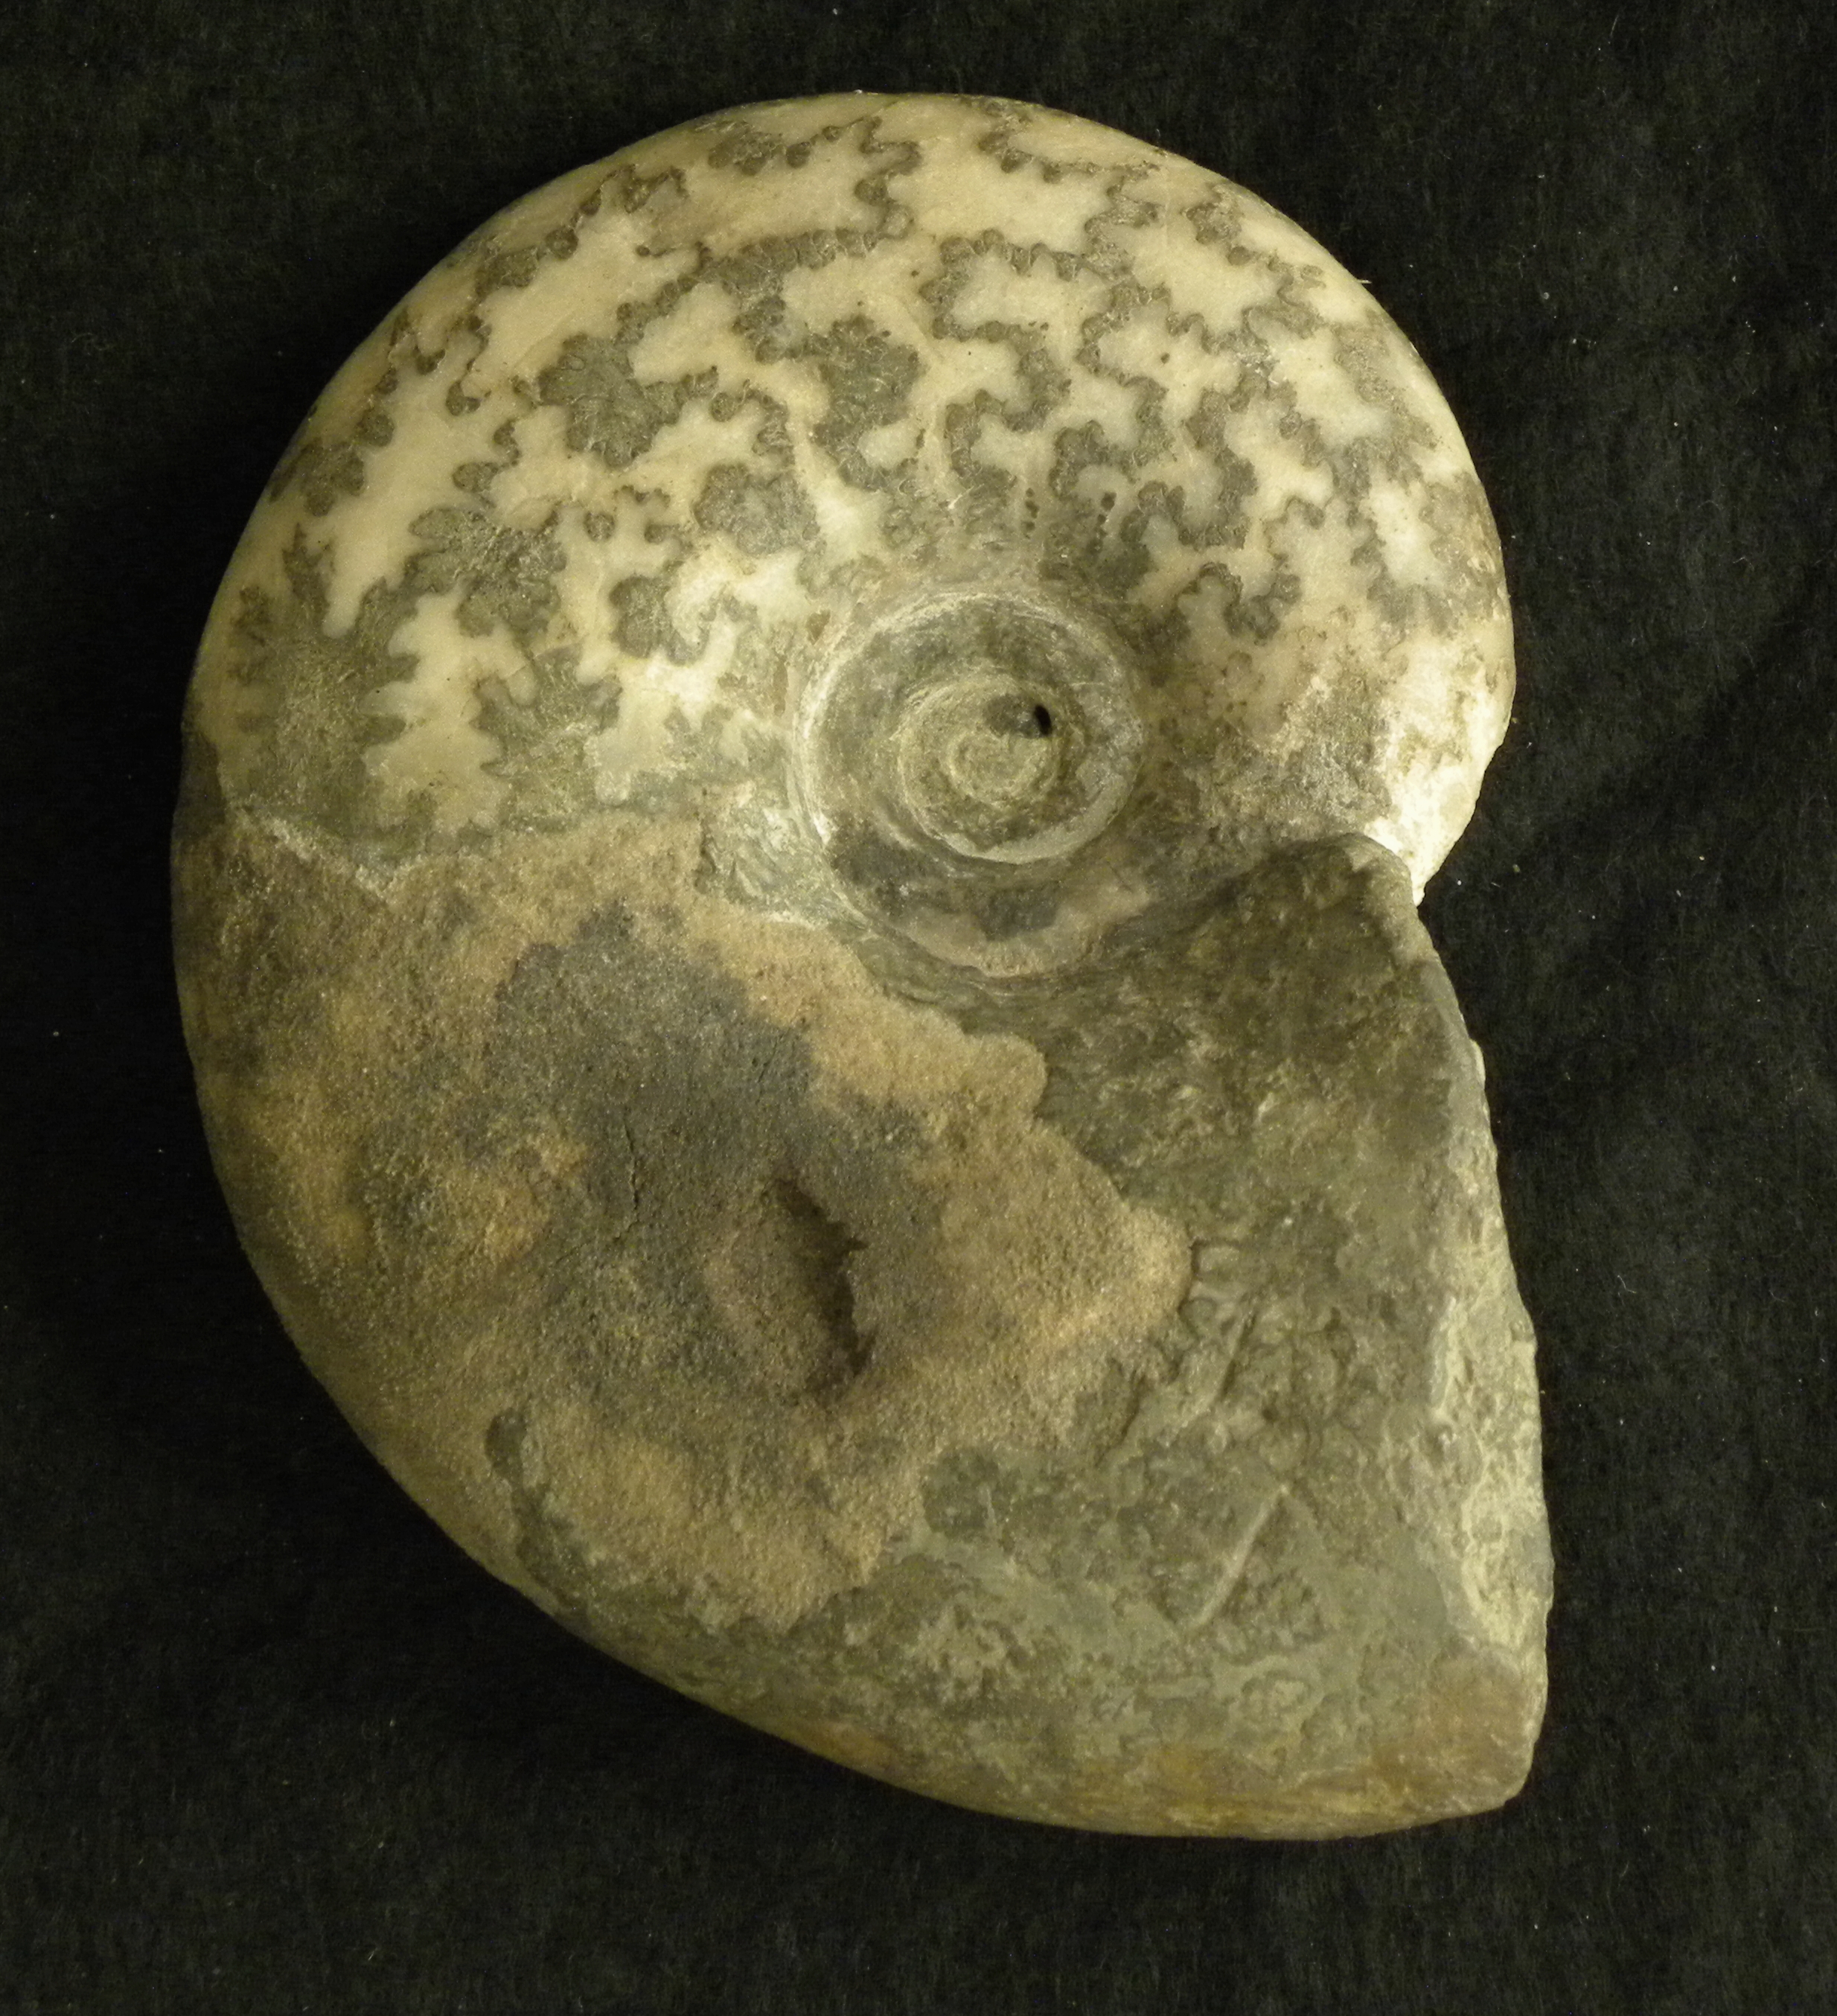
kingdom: Animalia
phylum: Mollusca
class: Cephalopoda
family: Lytoceratidae
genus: Pleurolytoceras
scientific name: Pleurolytoceras wrighti
